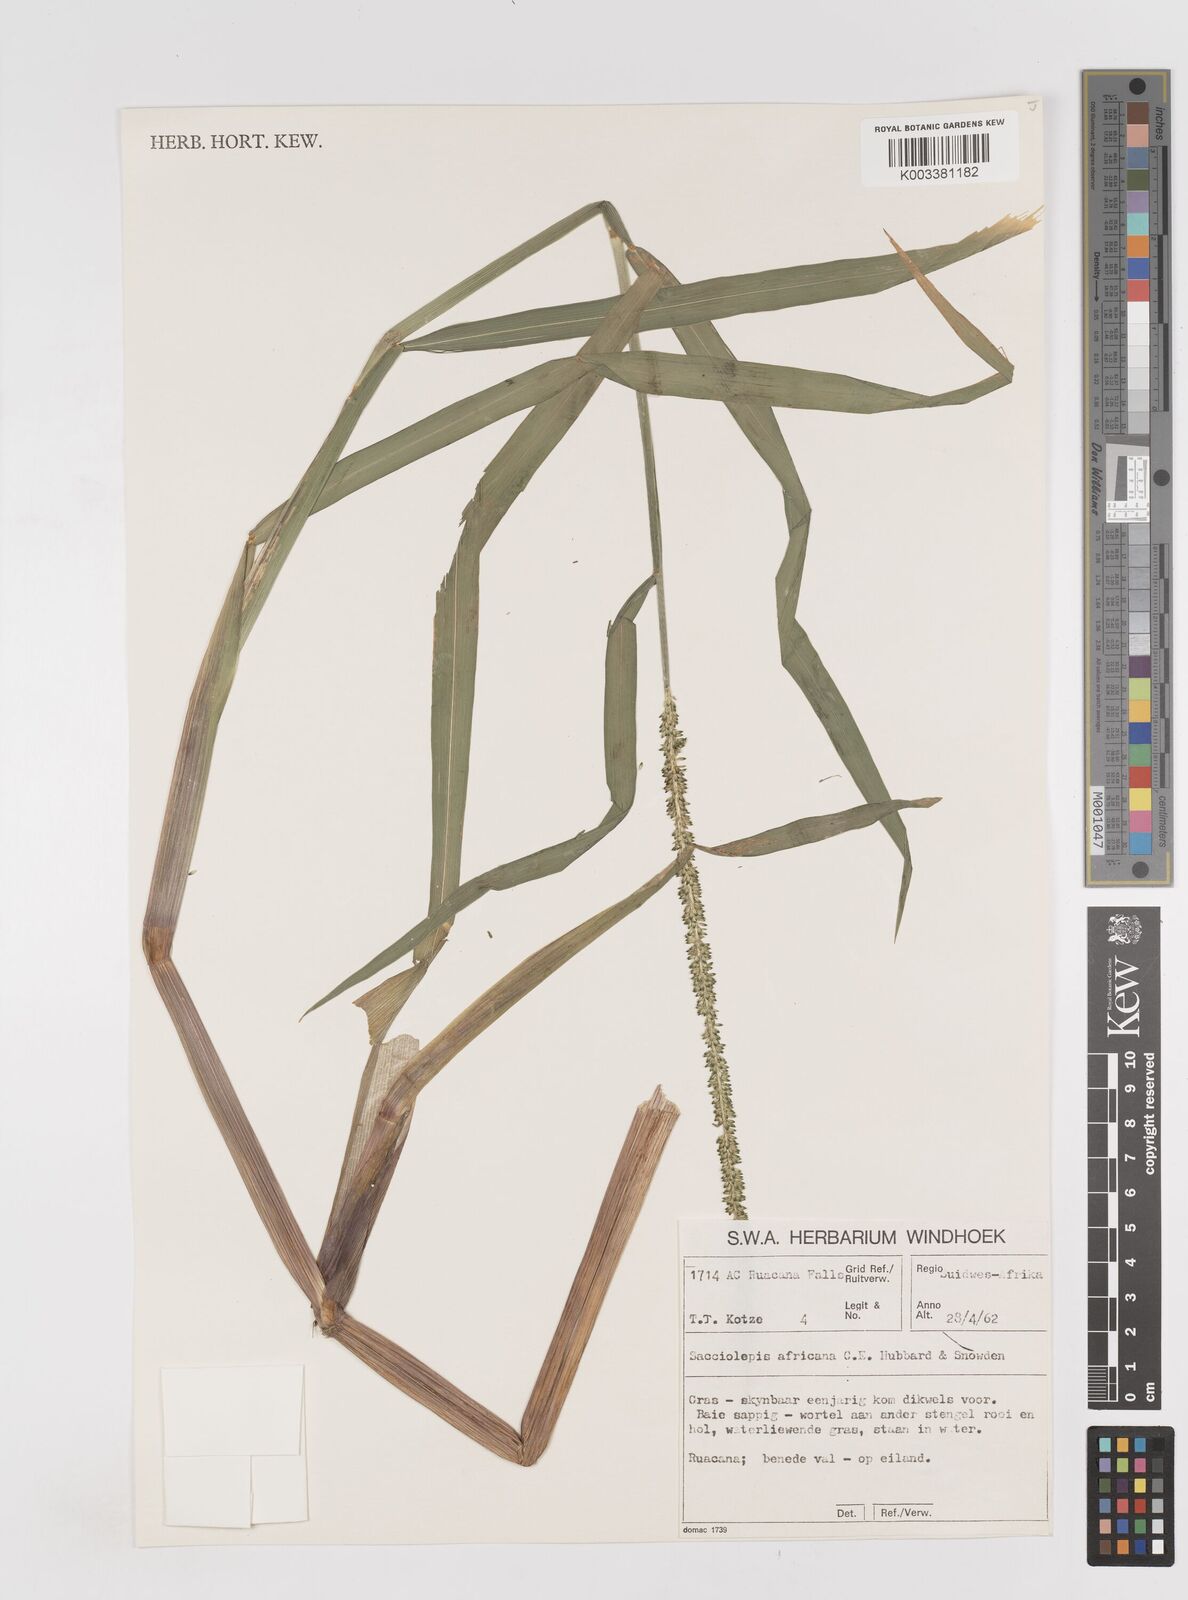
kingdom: Plantae
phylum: Tracheophyta
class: Liliopsida
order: Poales
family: Poaceae
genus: Sacciolepis
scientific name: Sacciolepis africana
